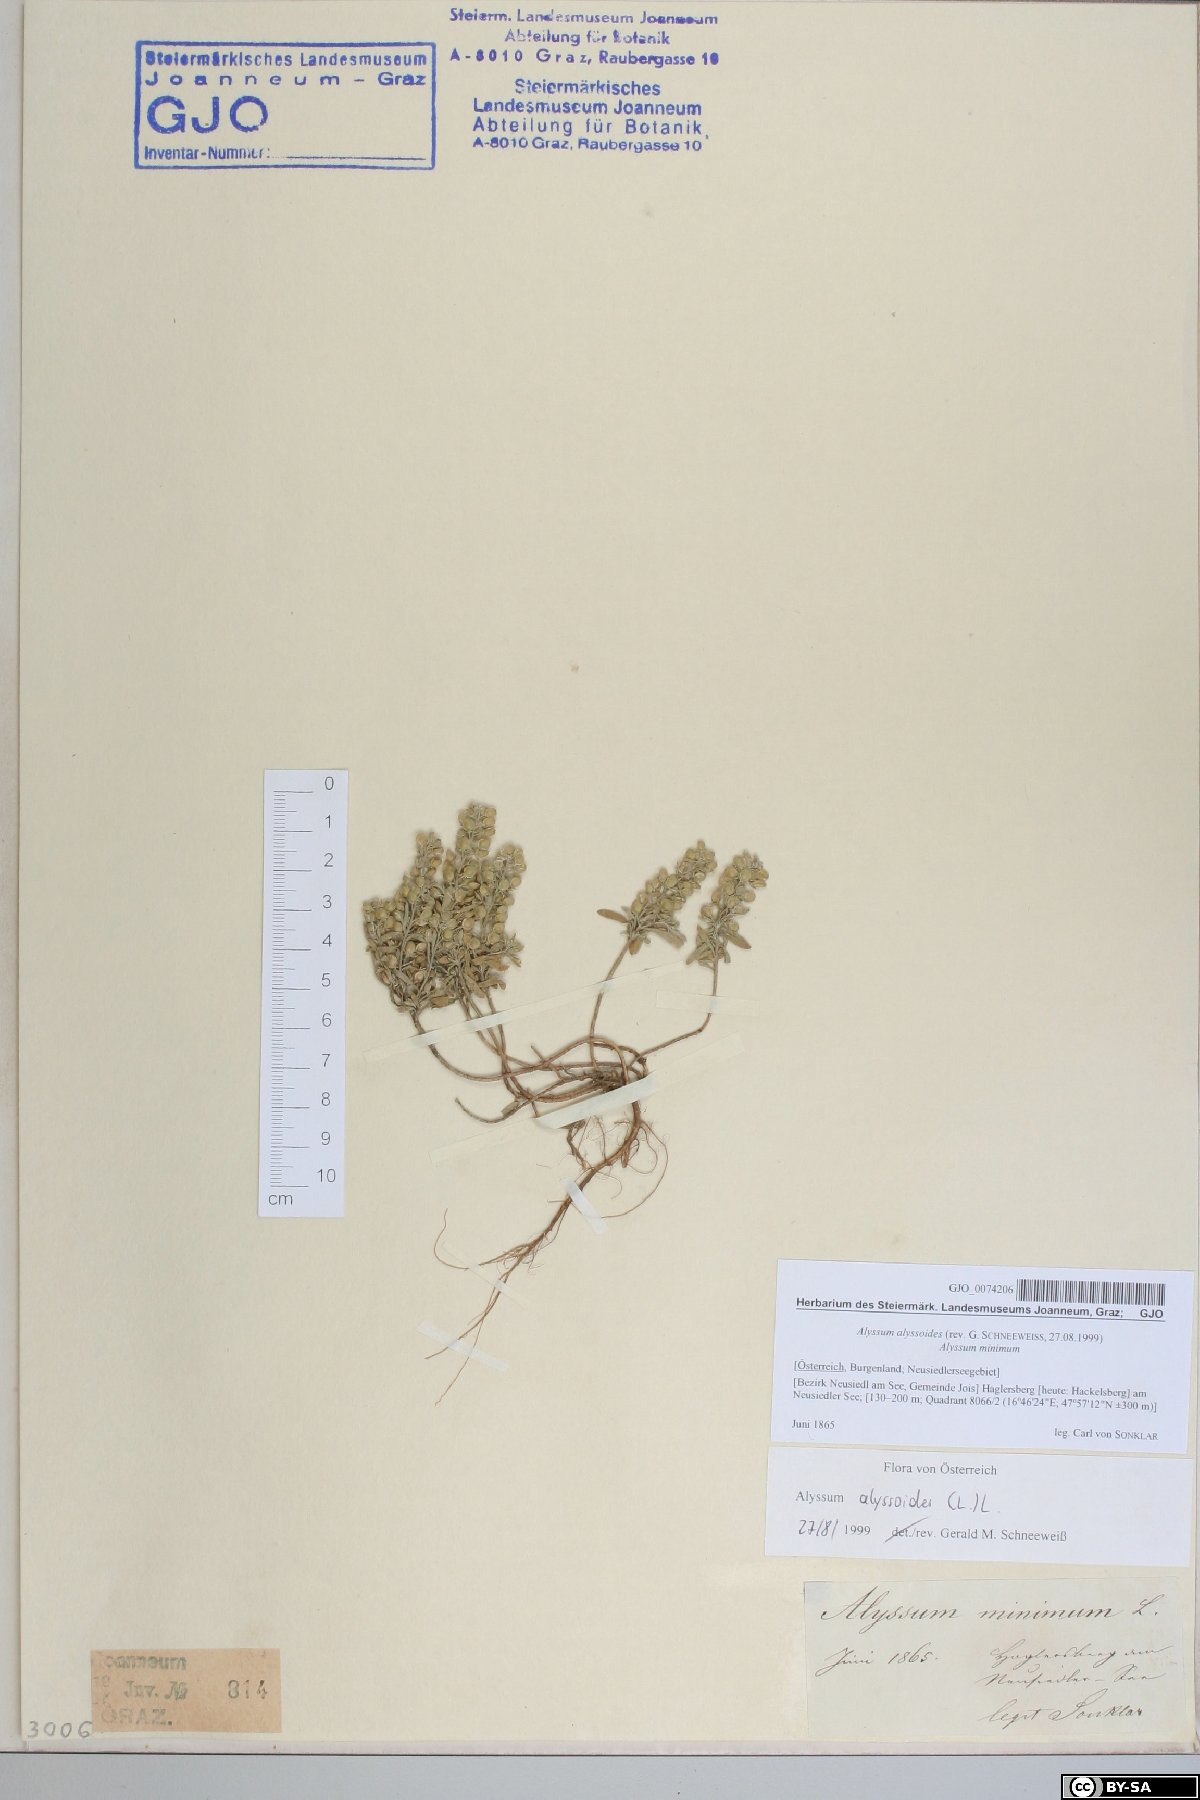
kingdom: Plantae
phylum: Tracheophyta
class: Magnoliopsida
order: Brassicales
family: Brassicaceae
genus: Alyssum
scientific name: Alyssum alyssoides
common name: Small alison
